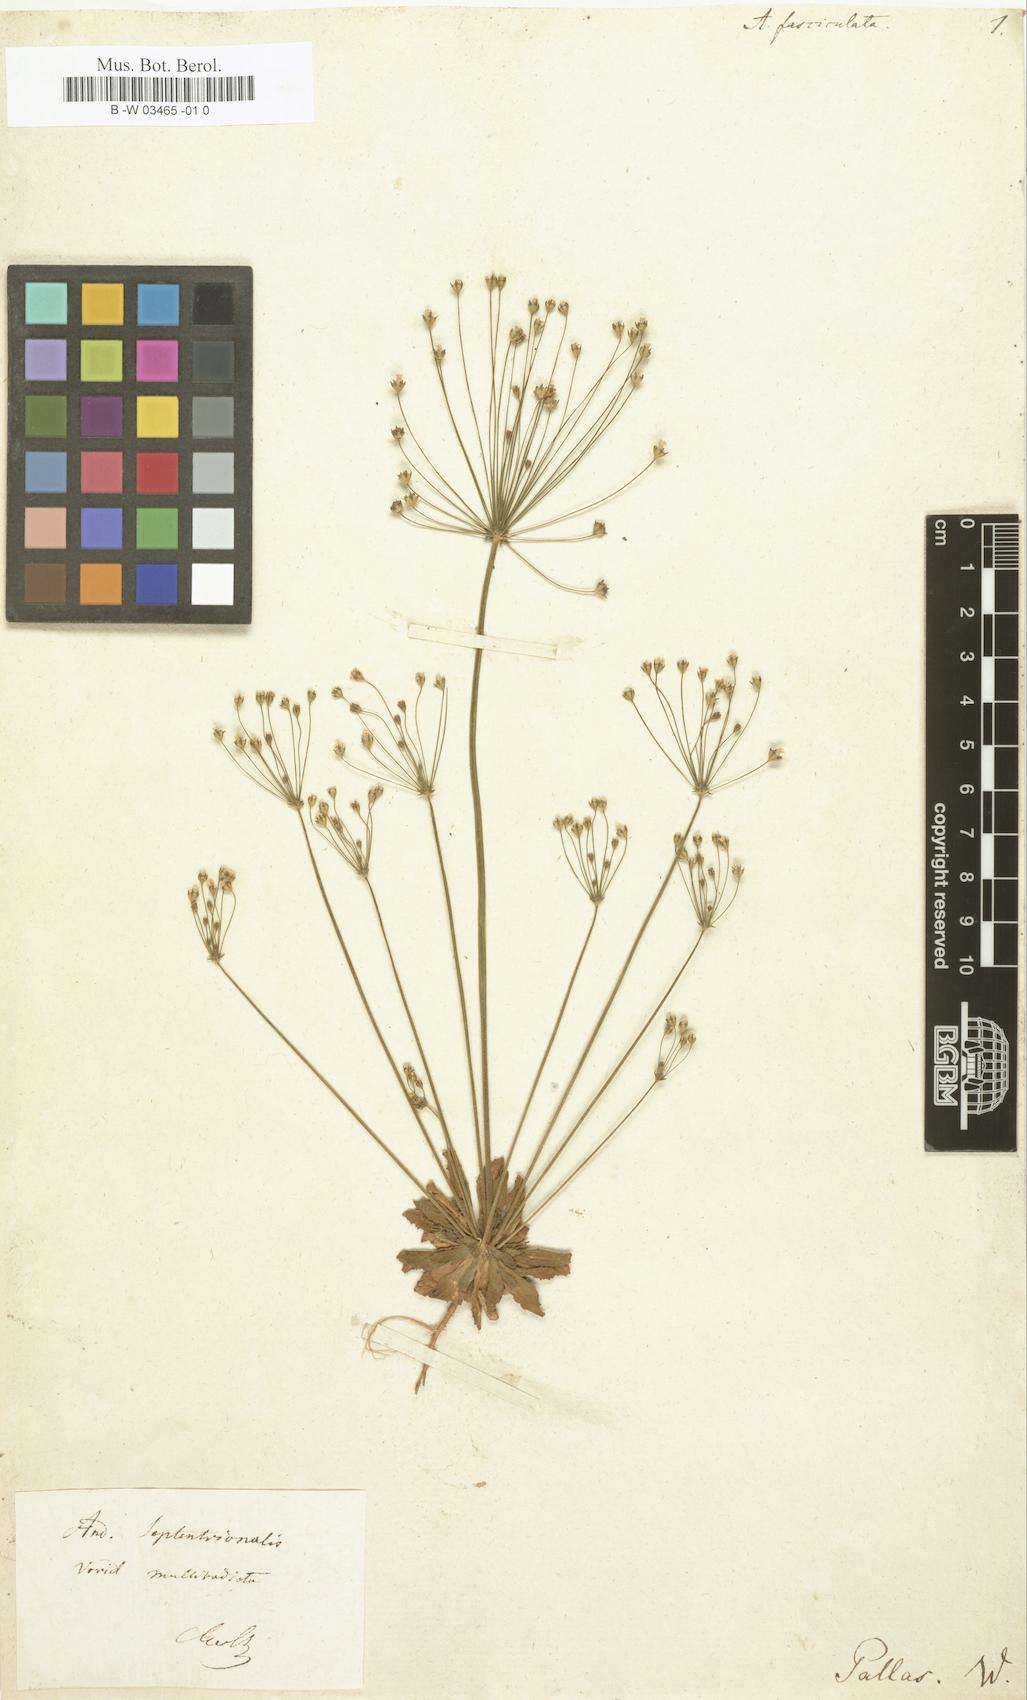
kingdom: Plantae
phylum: Tracheophyta
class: Magnoliopsida
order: Ericales
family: Primulaceae
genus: Androsace
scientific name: Androsace fasciculata
